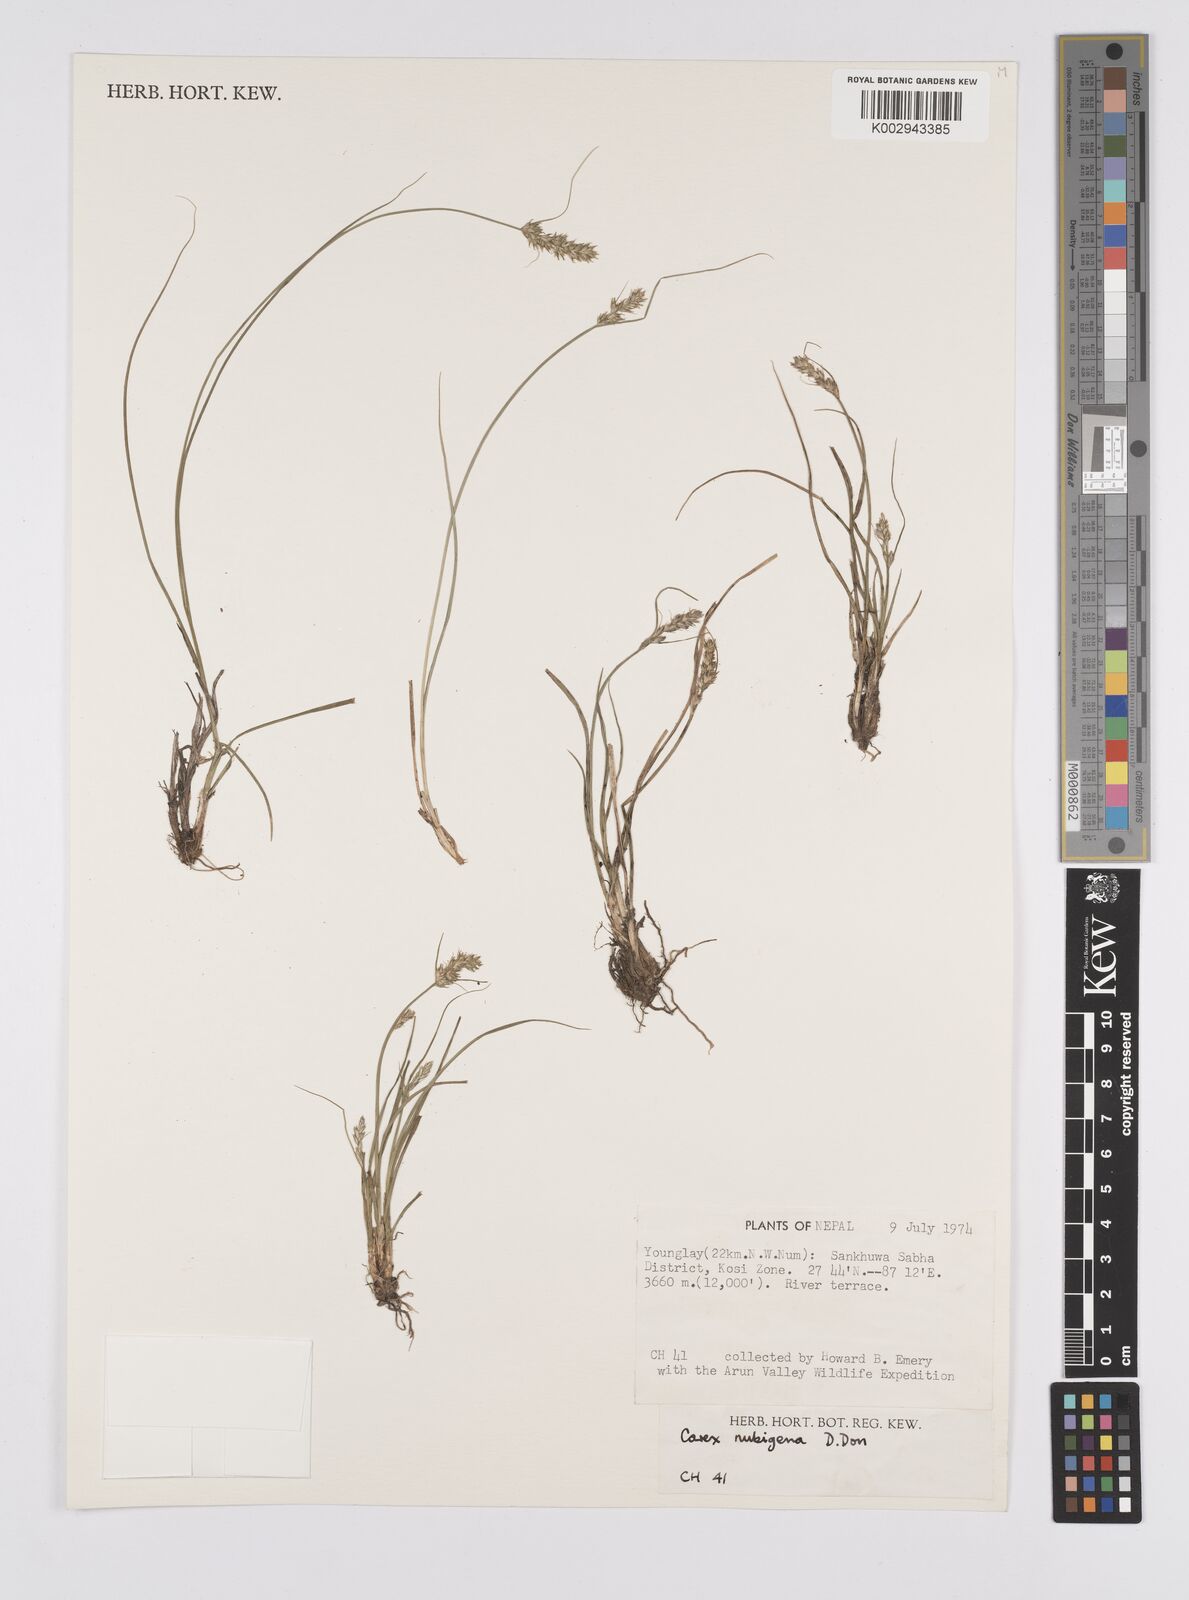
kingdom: Plantae
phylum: Tracheophyta
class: Liliopsida
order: Poales
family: Cyperaceae
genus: Carex
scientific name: Carex nubigena
